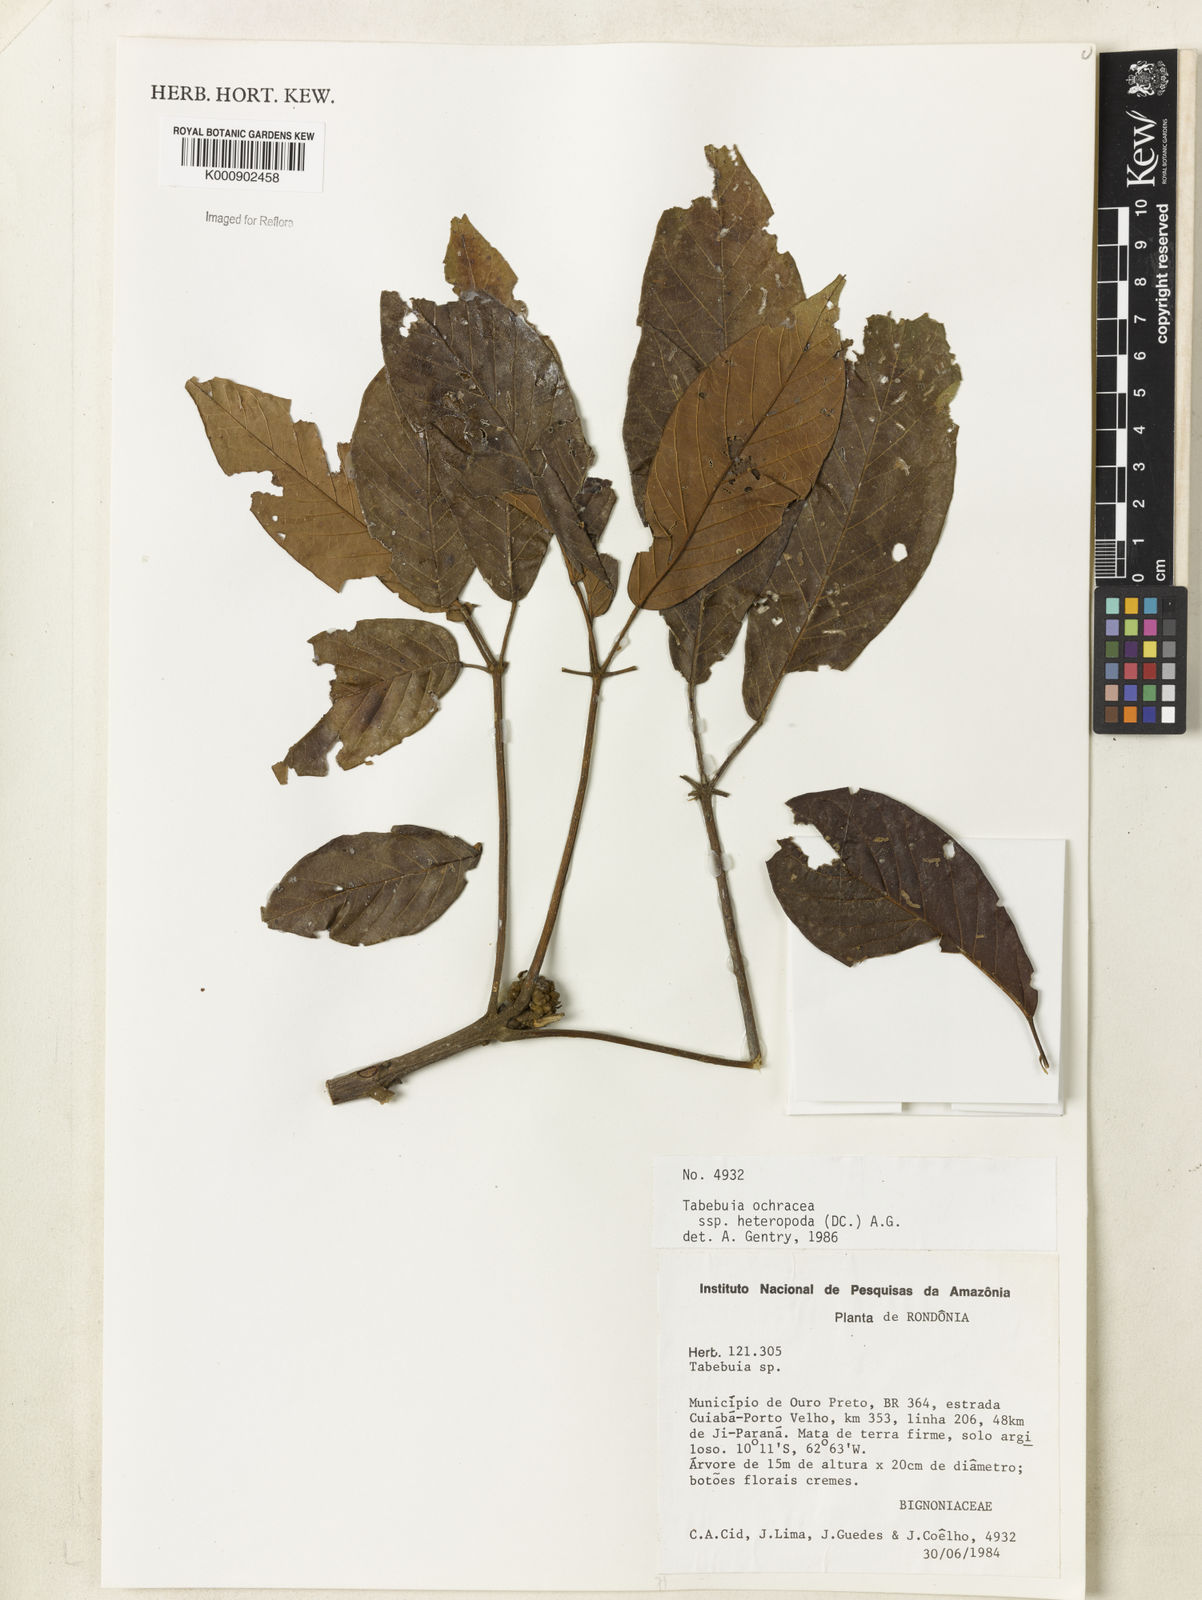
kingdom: Plantae
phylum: Tracheophyta
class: Magnoliopsida
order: Lamiales
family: Bignoniaceae
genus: Handroanthus
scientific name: Handroanthus ochraceus
